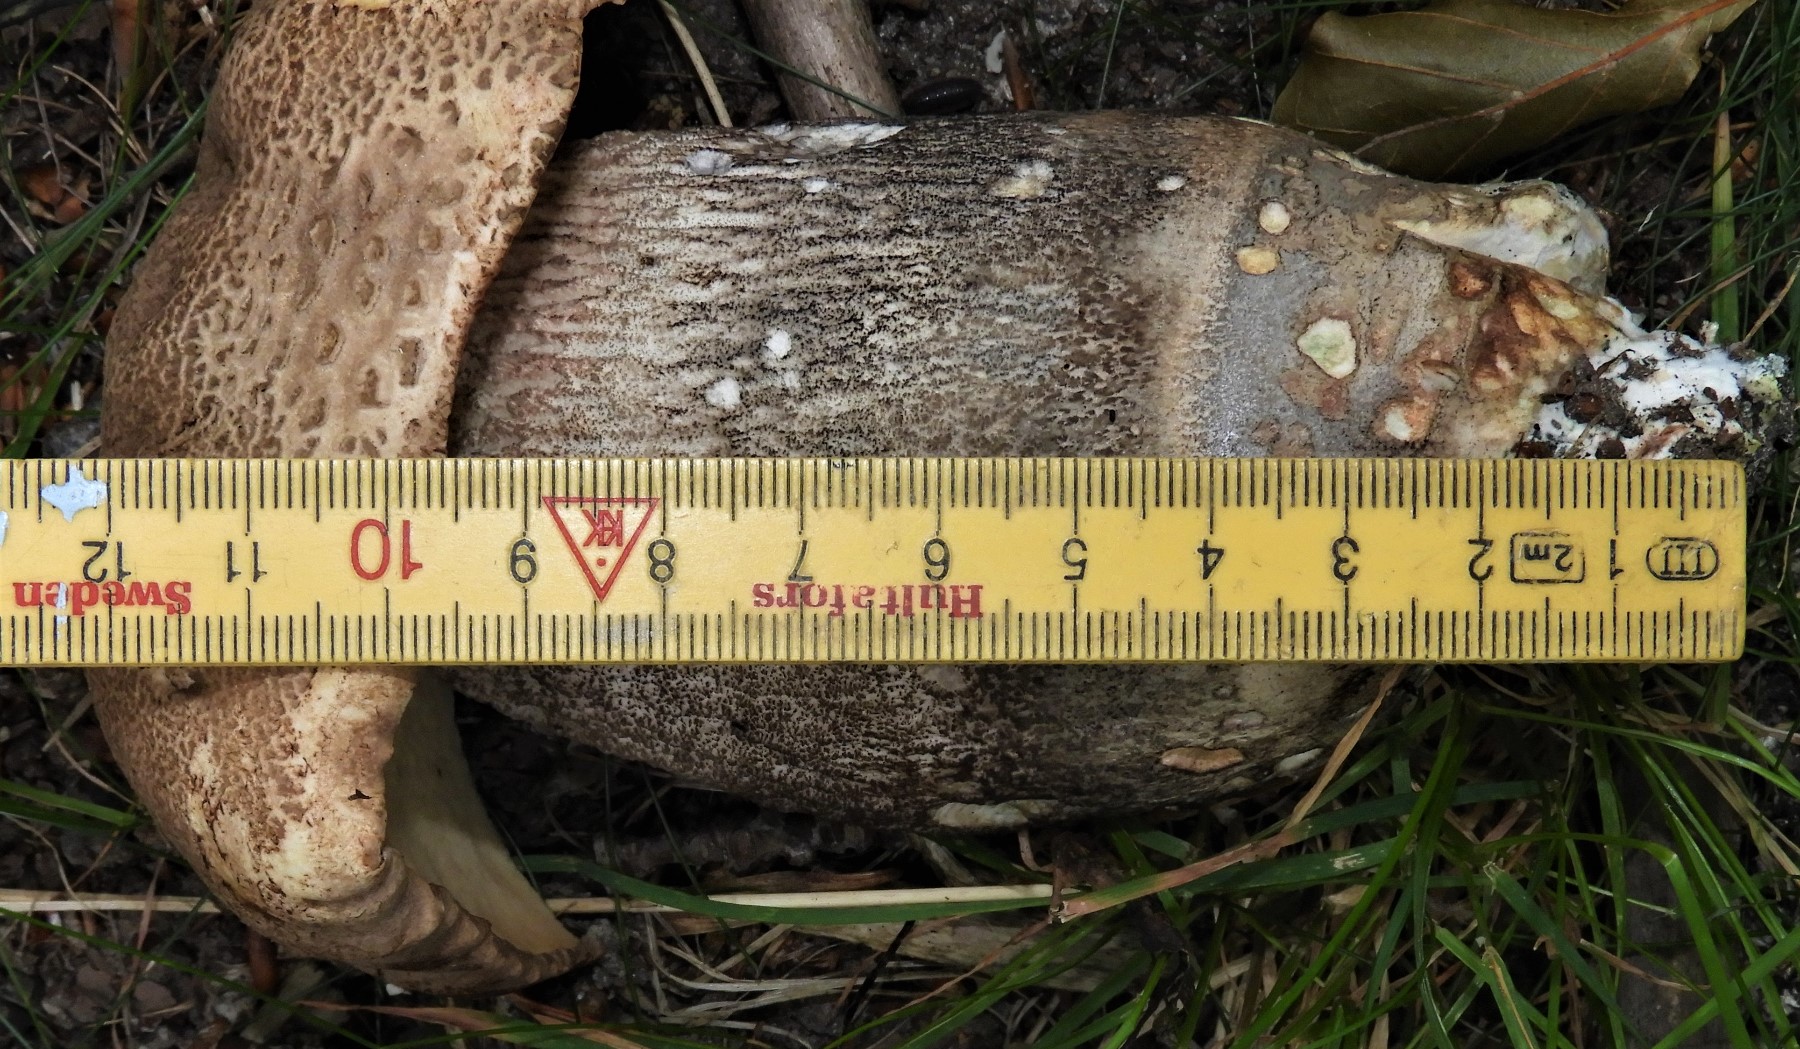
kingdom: Fungi
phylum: Basidiomycota
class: Agaricomycetes
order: Boletales
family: Boletaceae
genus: Leccinum
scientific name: Leccinum scabrum
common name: brun skælrørhat
